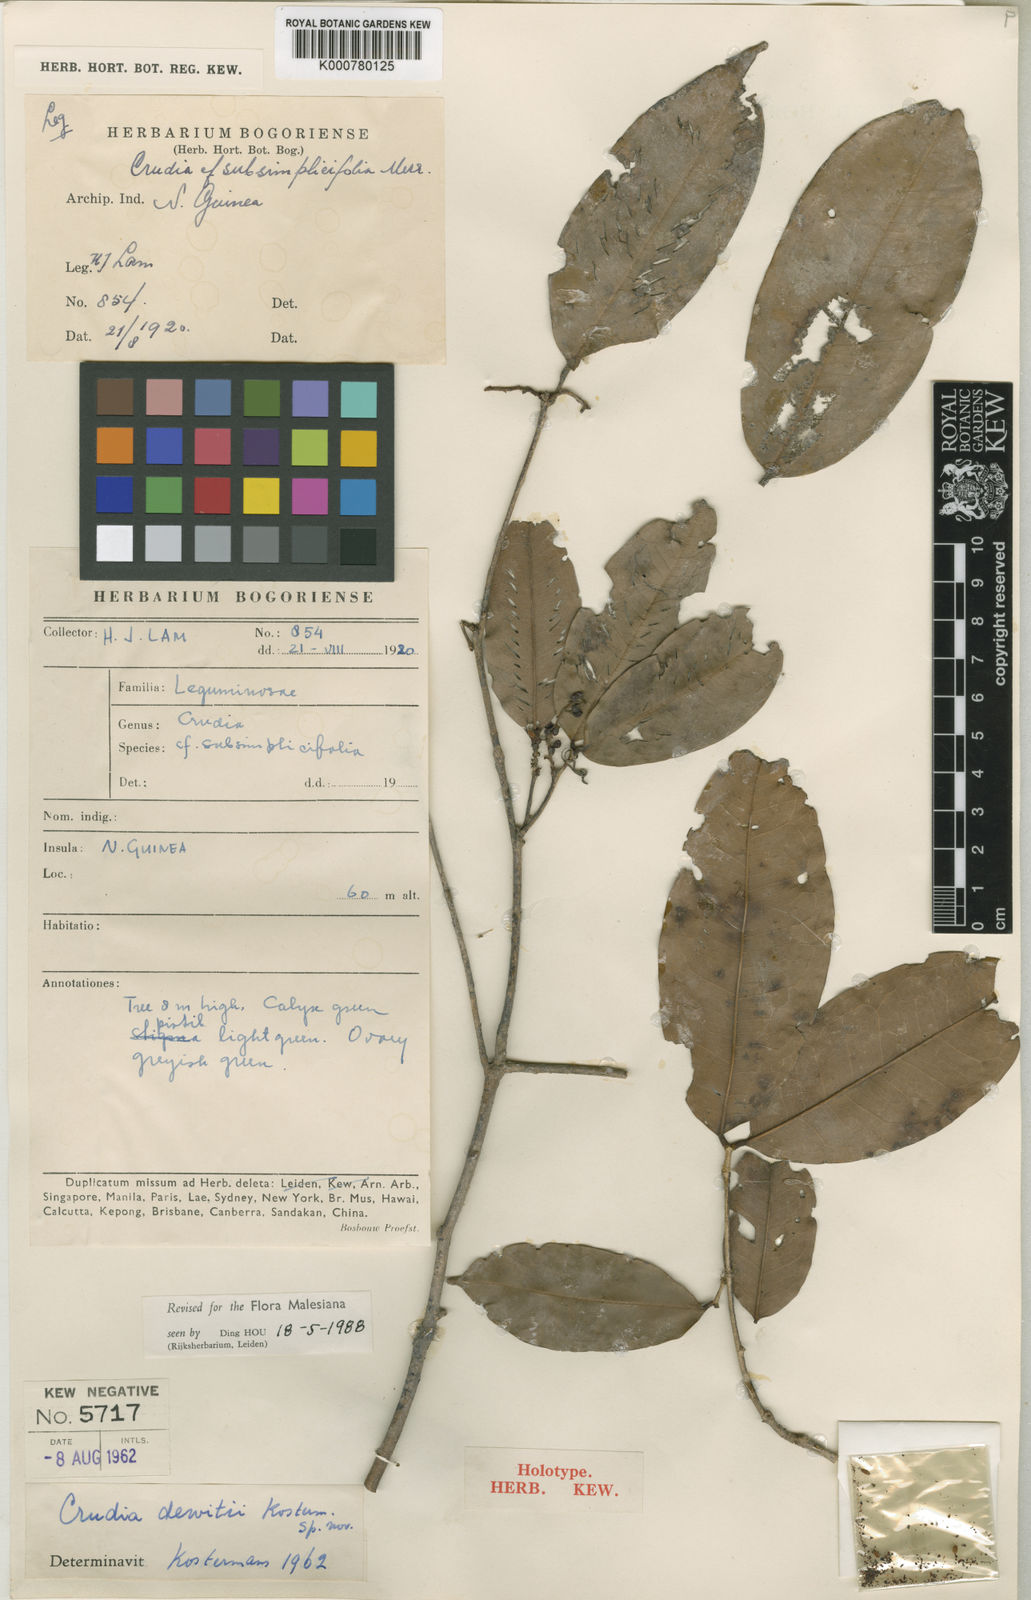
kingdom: Plantae
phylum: Tracheophyta
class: Magnoliopsida
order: Fabales
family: Fabaceae
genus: Crudia
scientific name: Crudia papuana
